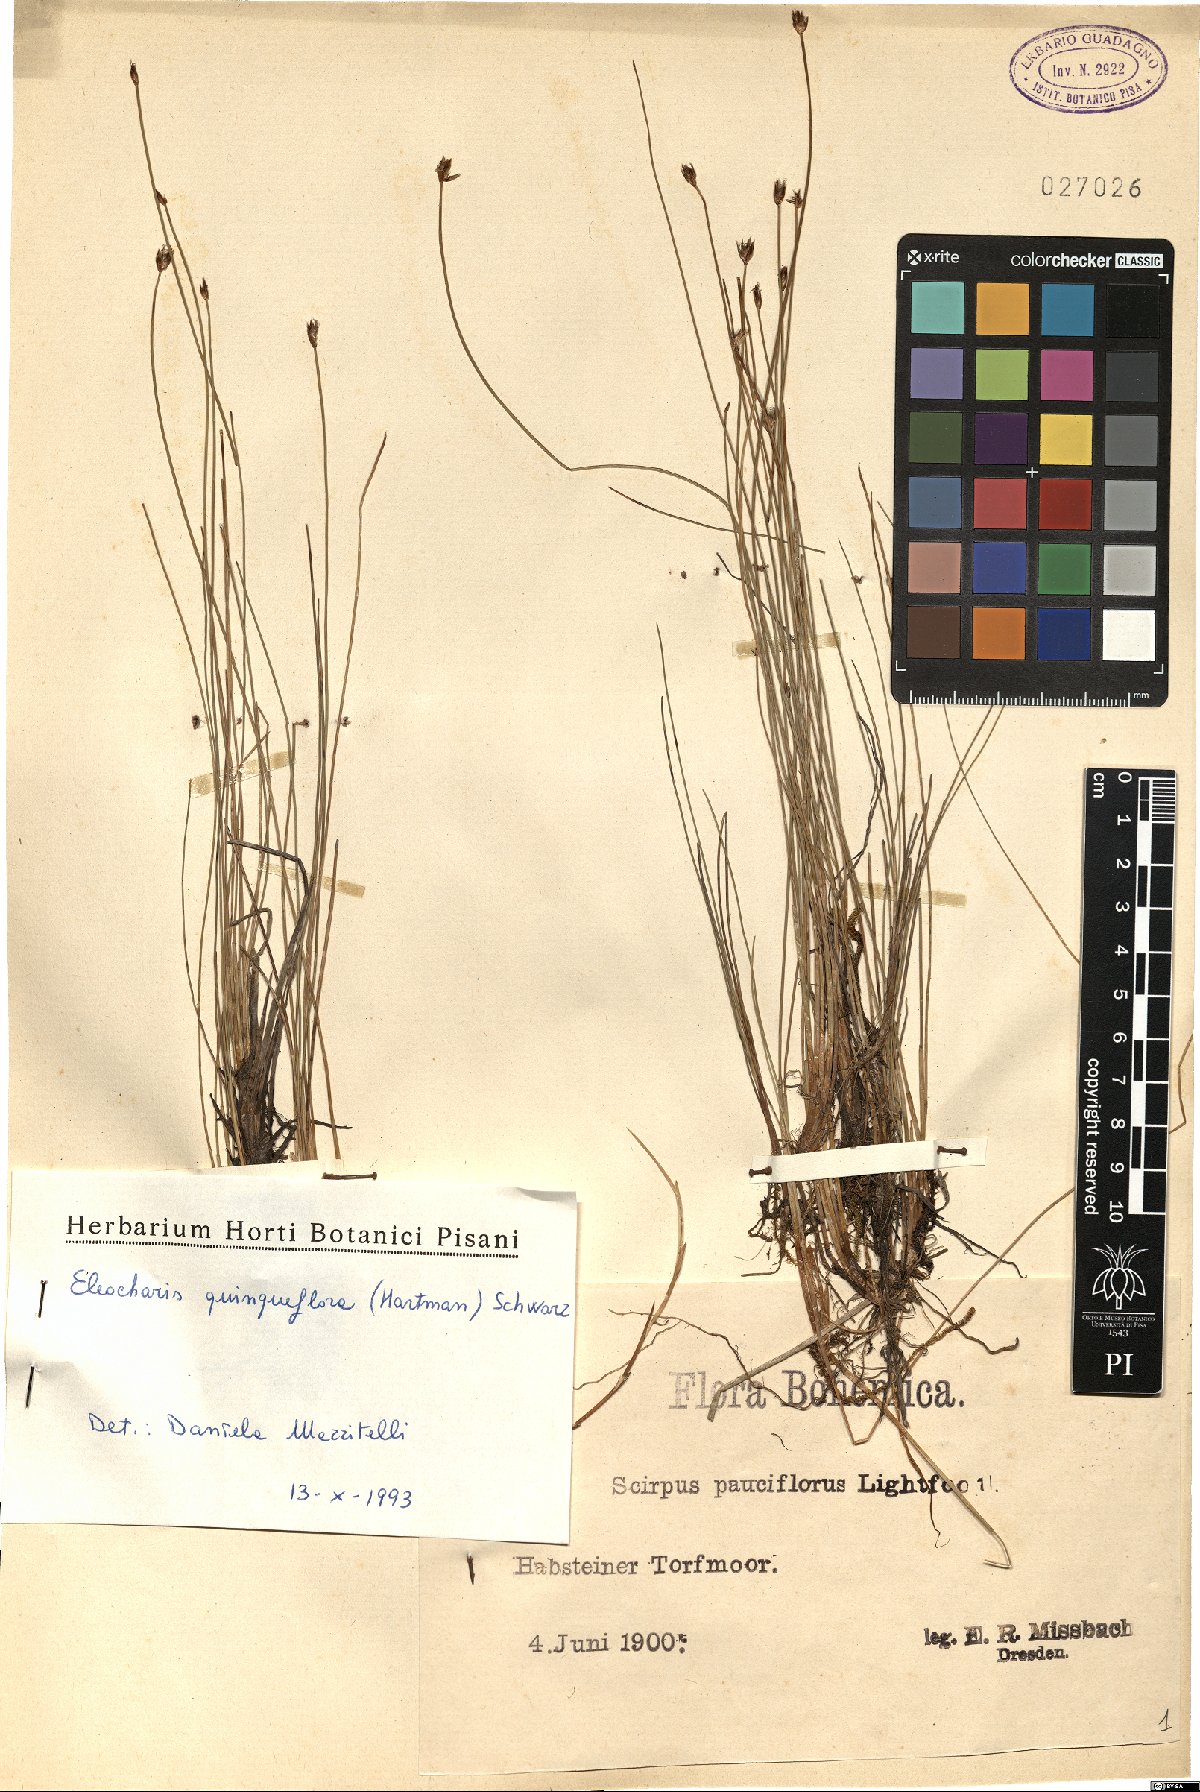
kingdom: Plantae
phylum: Tracheophyta
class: Liliopsida
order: Poales
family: Cyperaceae
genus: Eleocharis
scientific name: Eleocharis quinqueflora
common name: Few-flowered spike-rush
